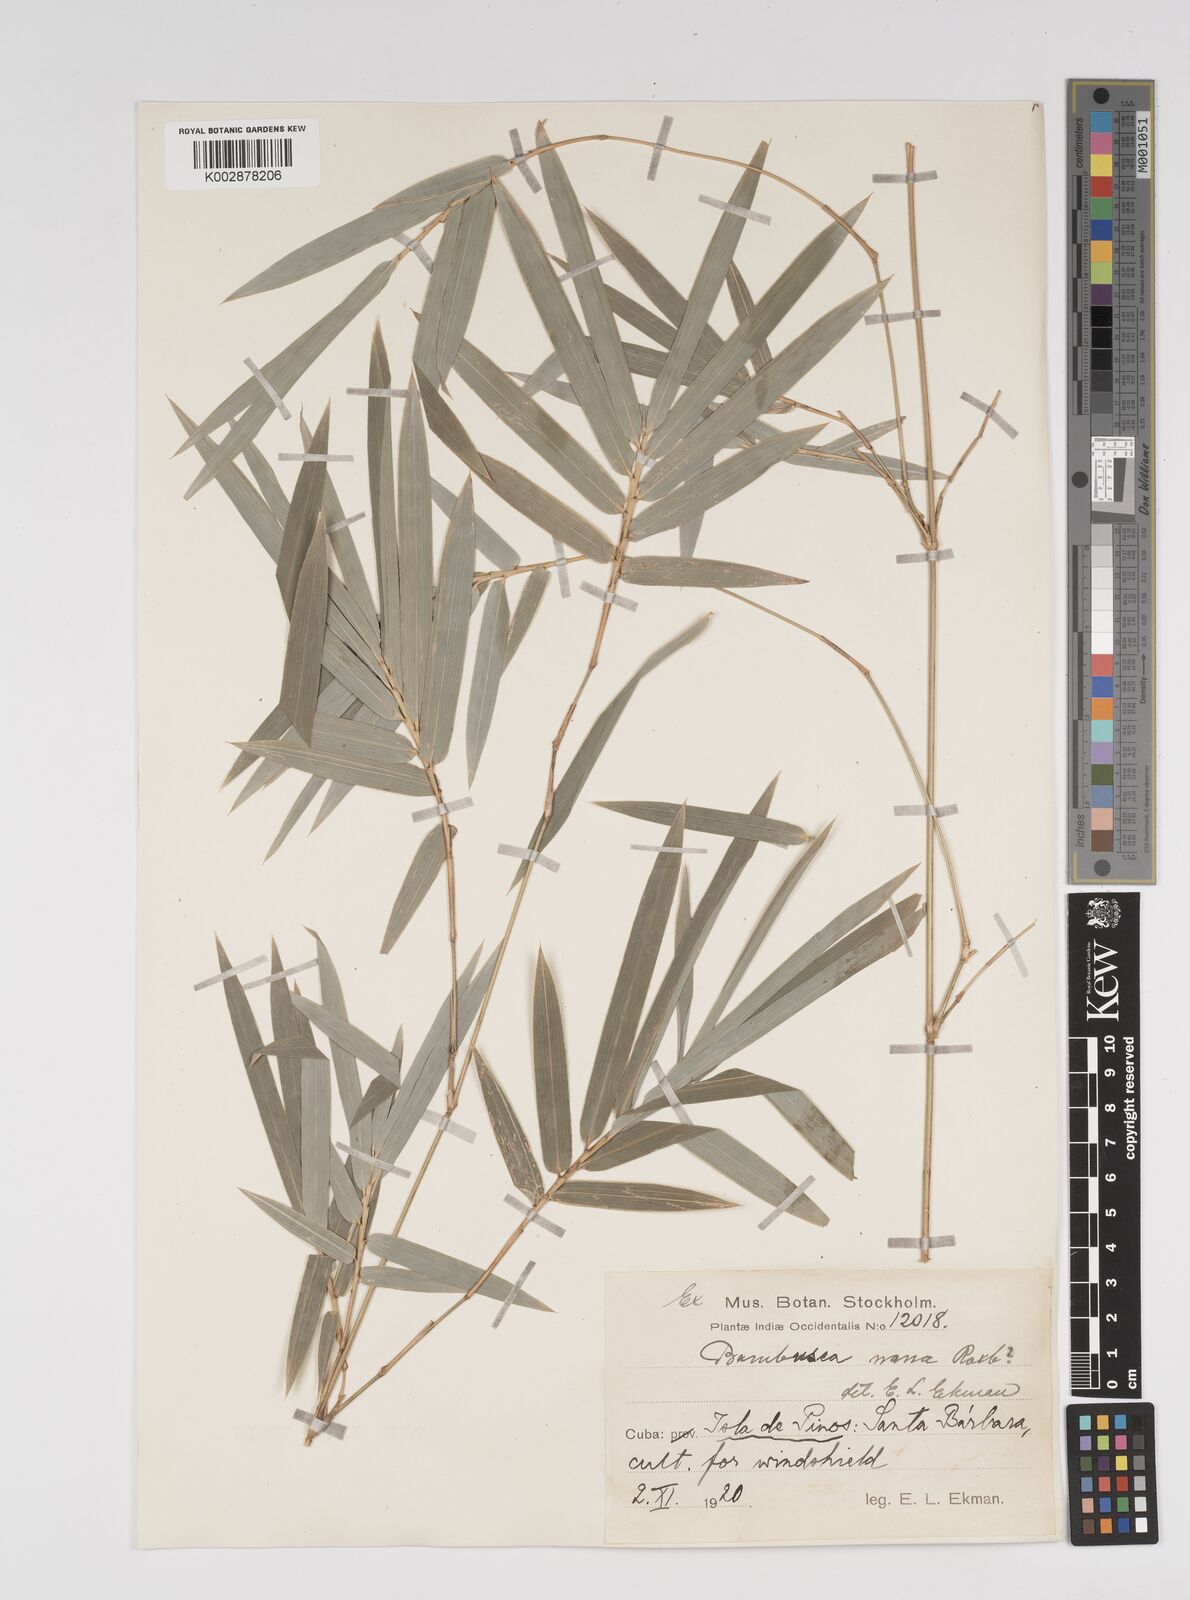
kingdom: Plantae
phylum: Tracheophyta
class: Liliopsida
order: Poales
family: Poaceae
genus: Bambusa
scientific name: Bambusa multiplex
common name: Hedge bamboo
